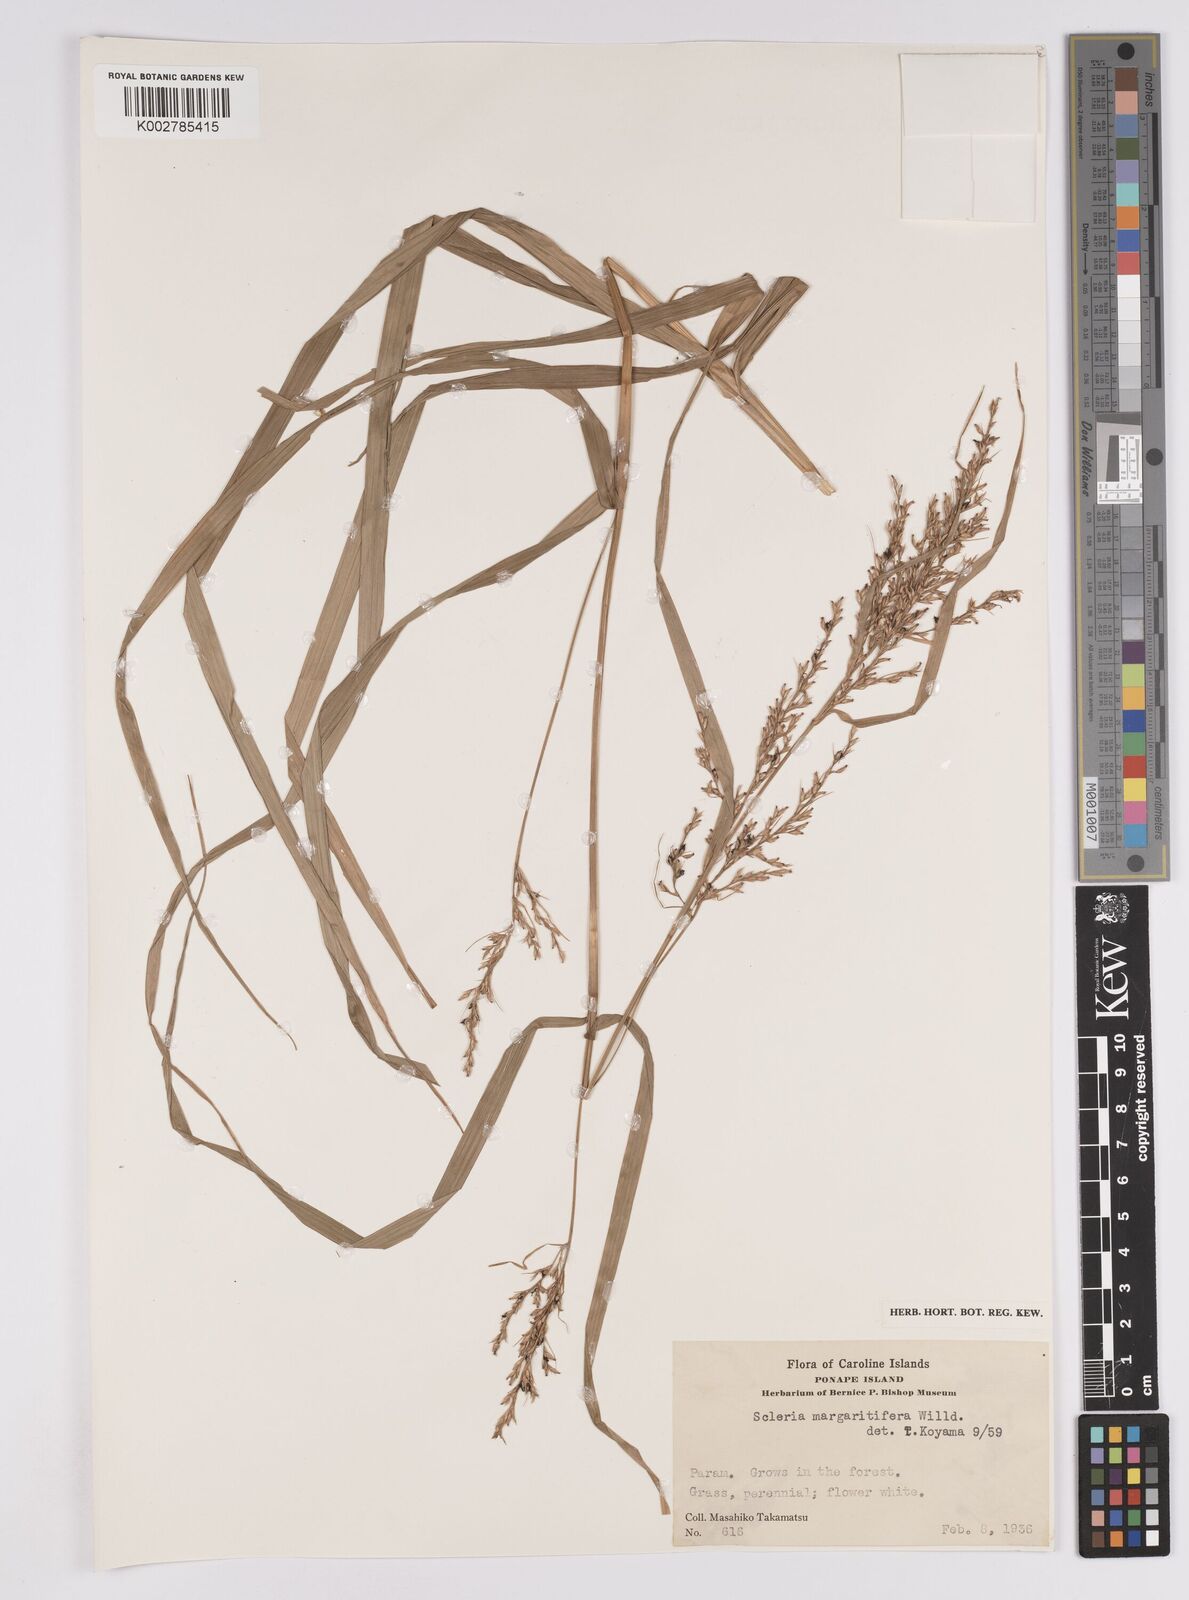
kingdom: Plantae
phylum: Tracheophyta
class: Liliopsida
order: Poales
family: Cyperaceae
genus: Scleria
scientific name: Scleria polycarpa
